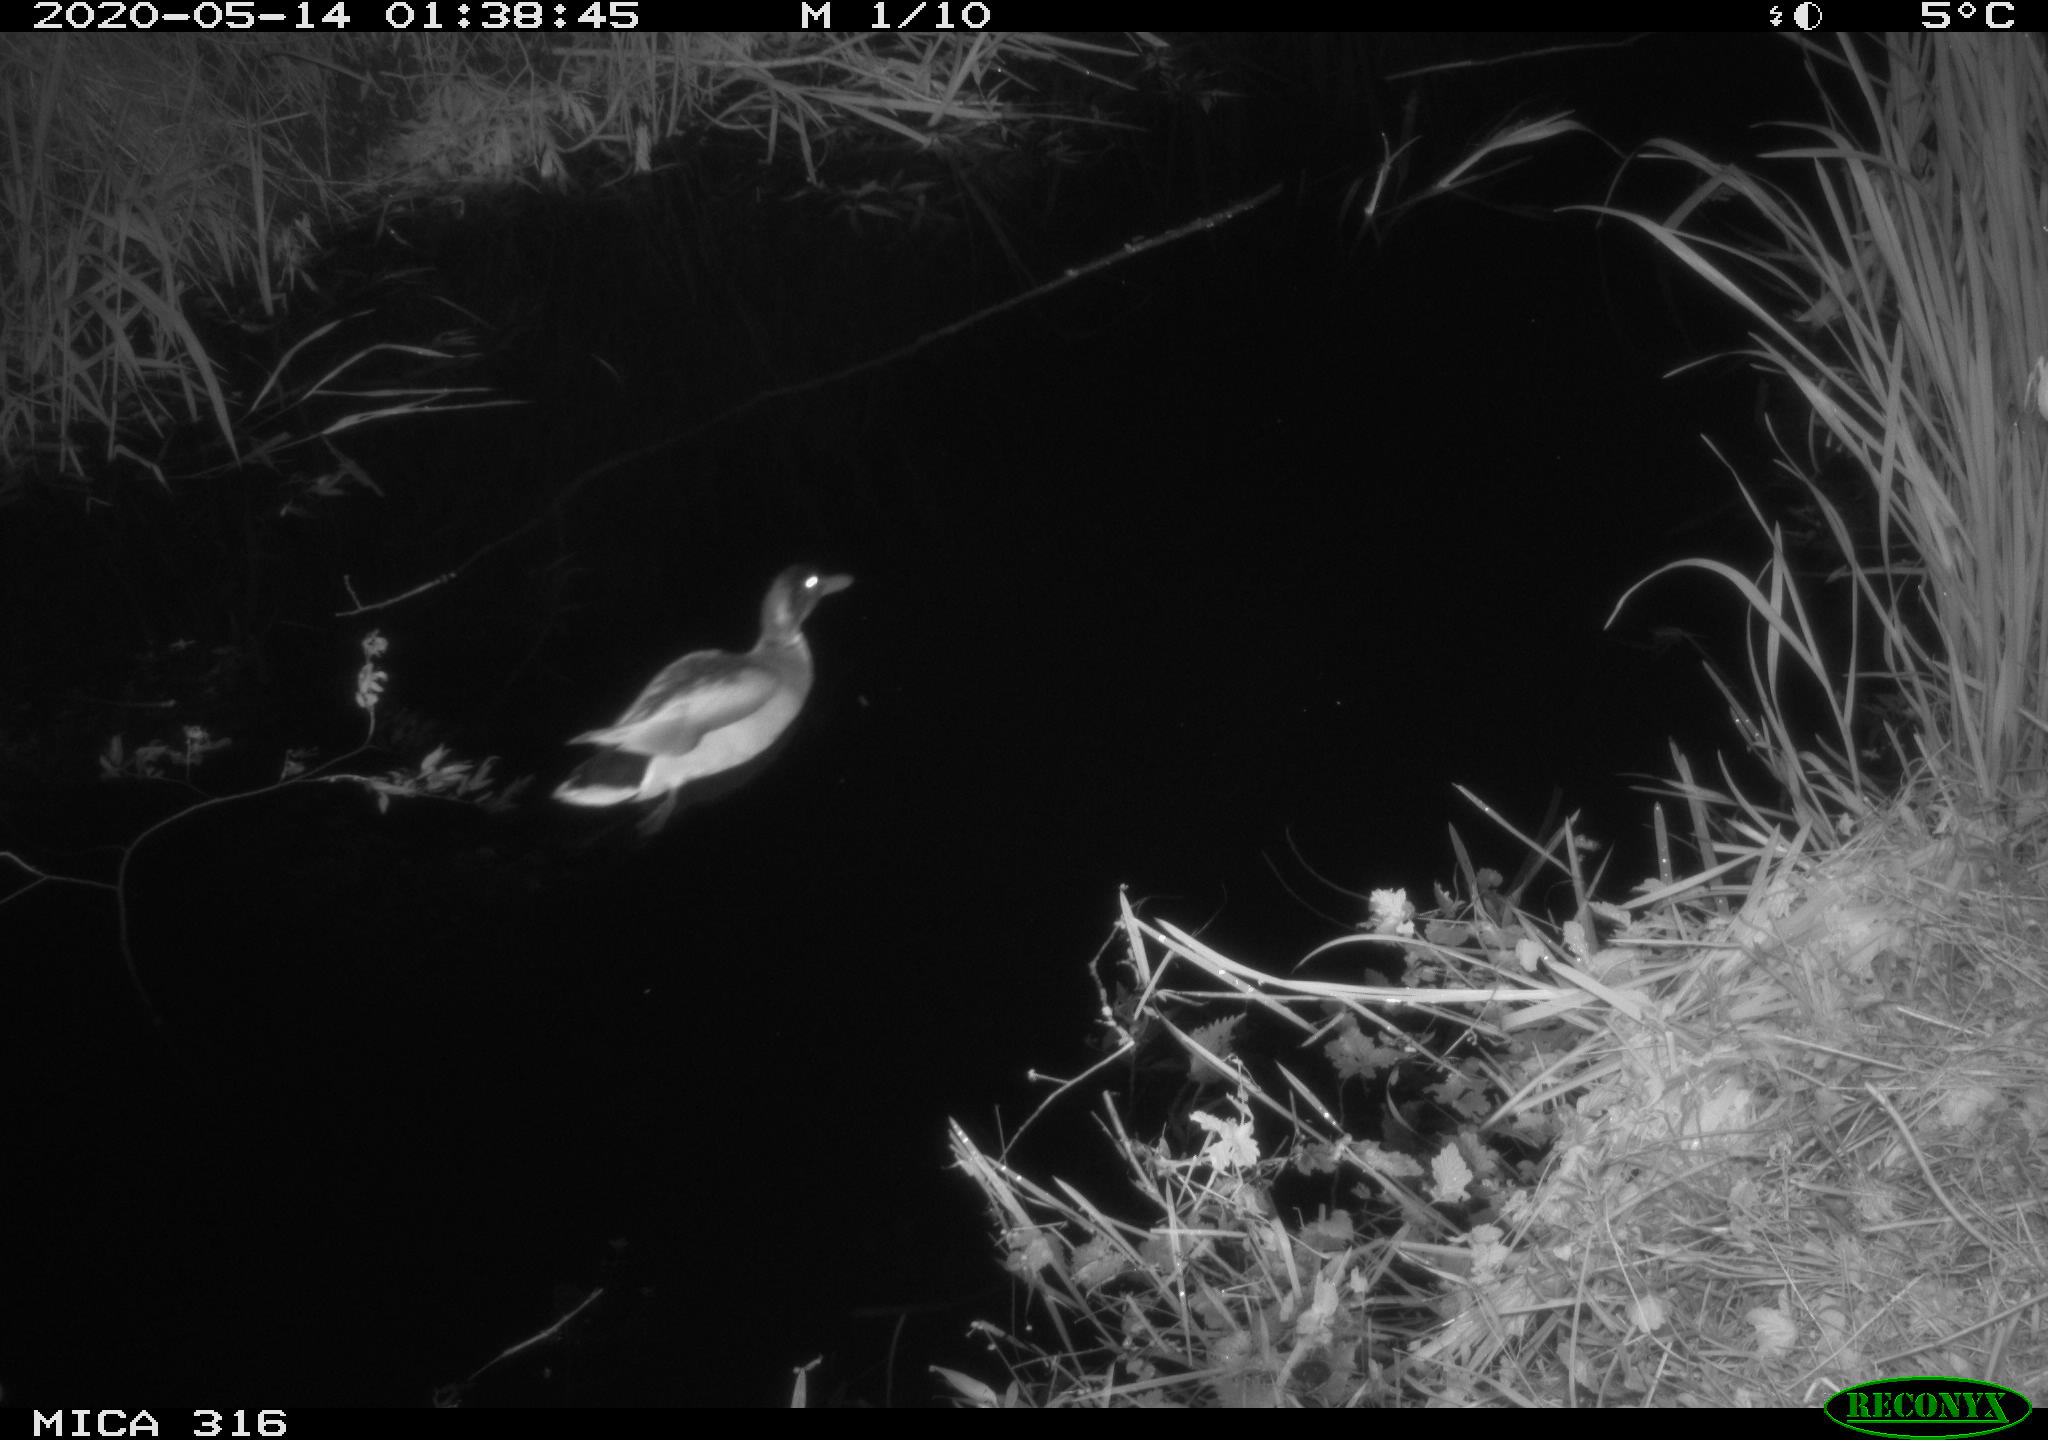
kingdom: Animalia
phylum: Chordata
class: Aves
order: Anseriformes
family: Anatidae
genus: Anas
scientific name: Anas platyrhynchos
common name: Mallard
